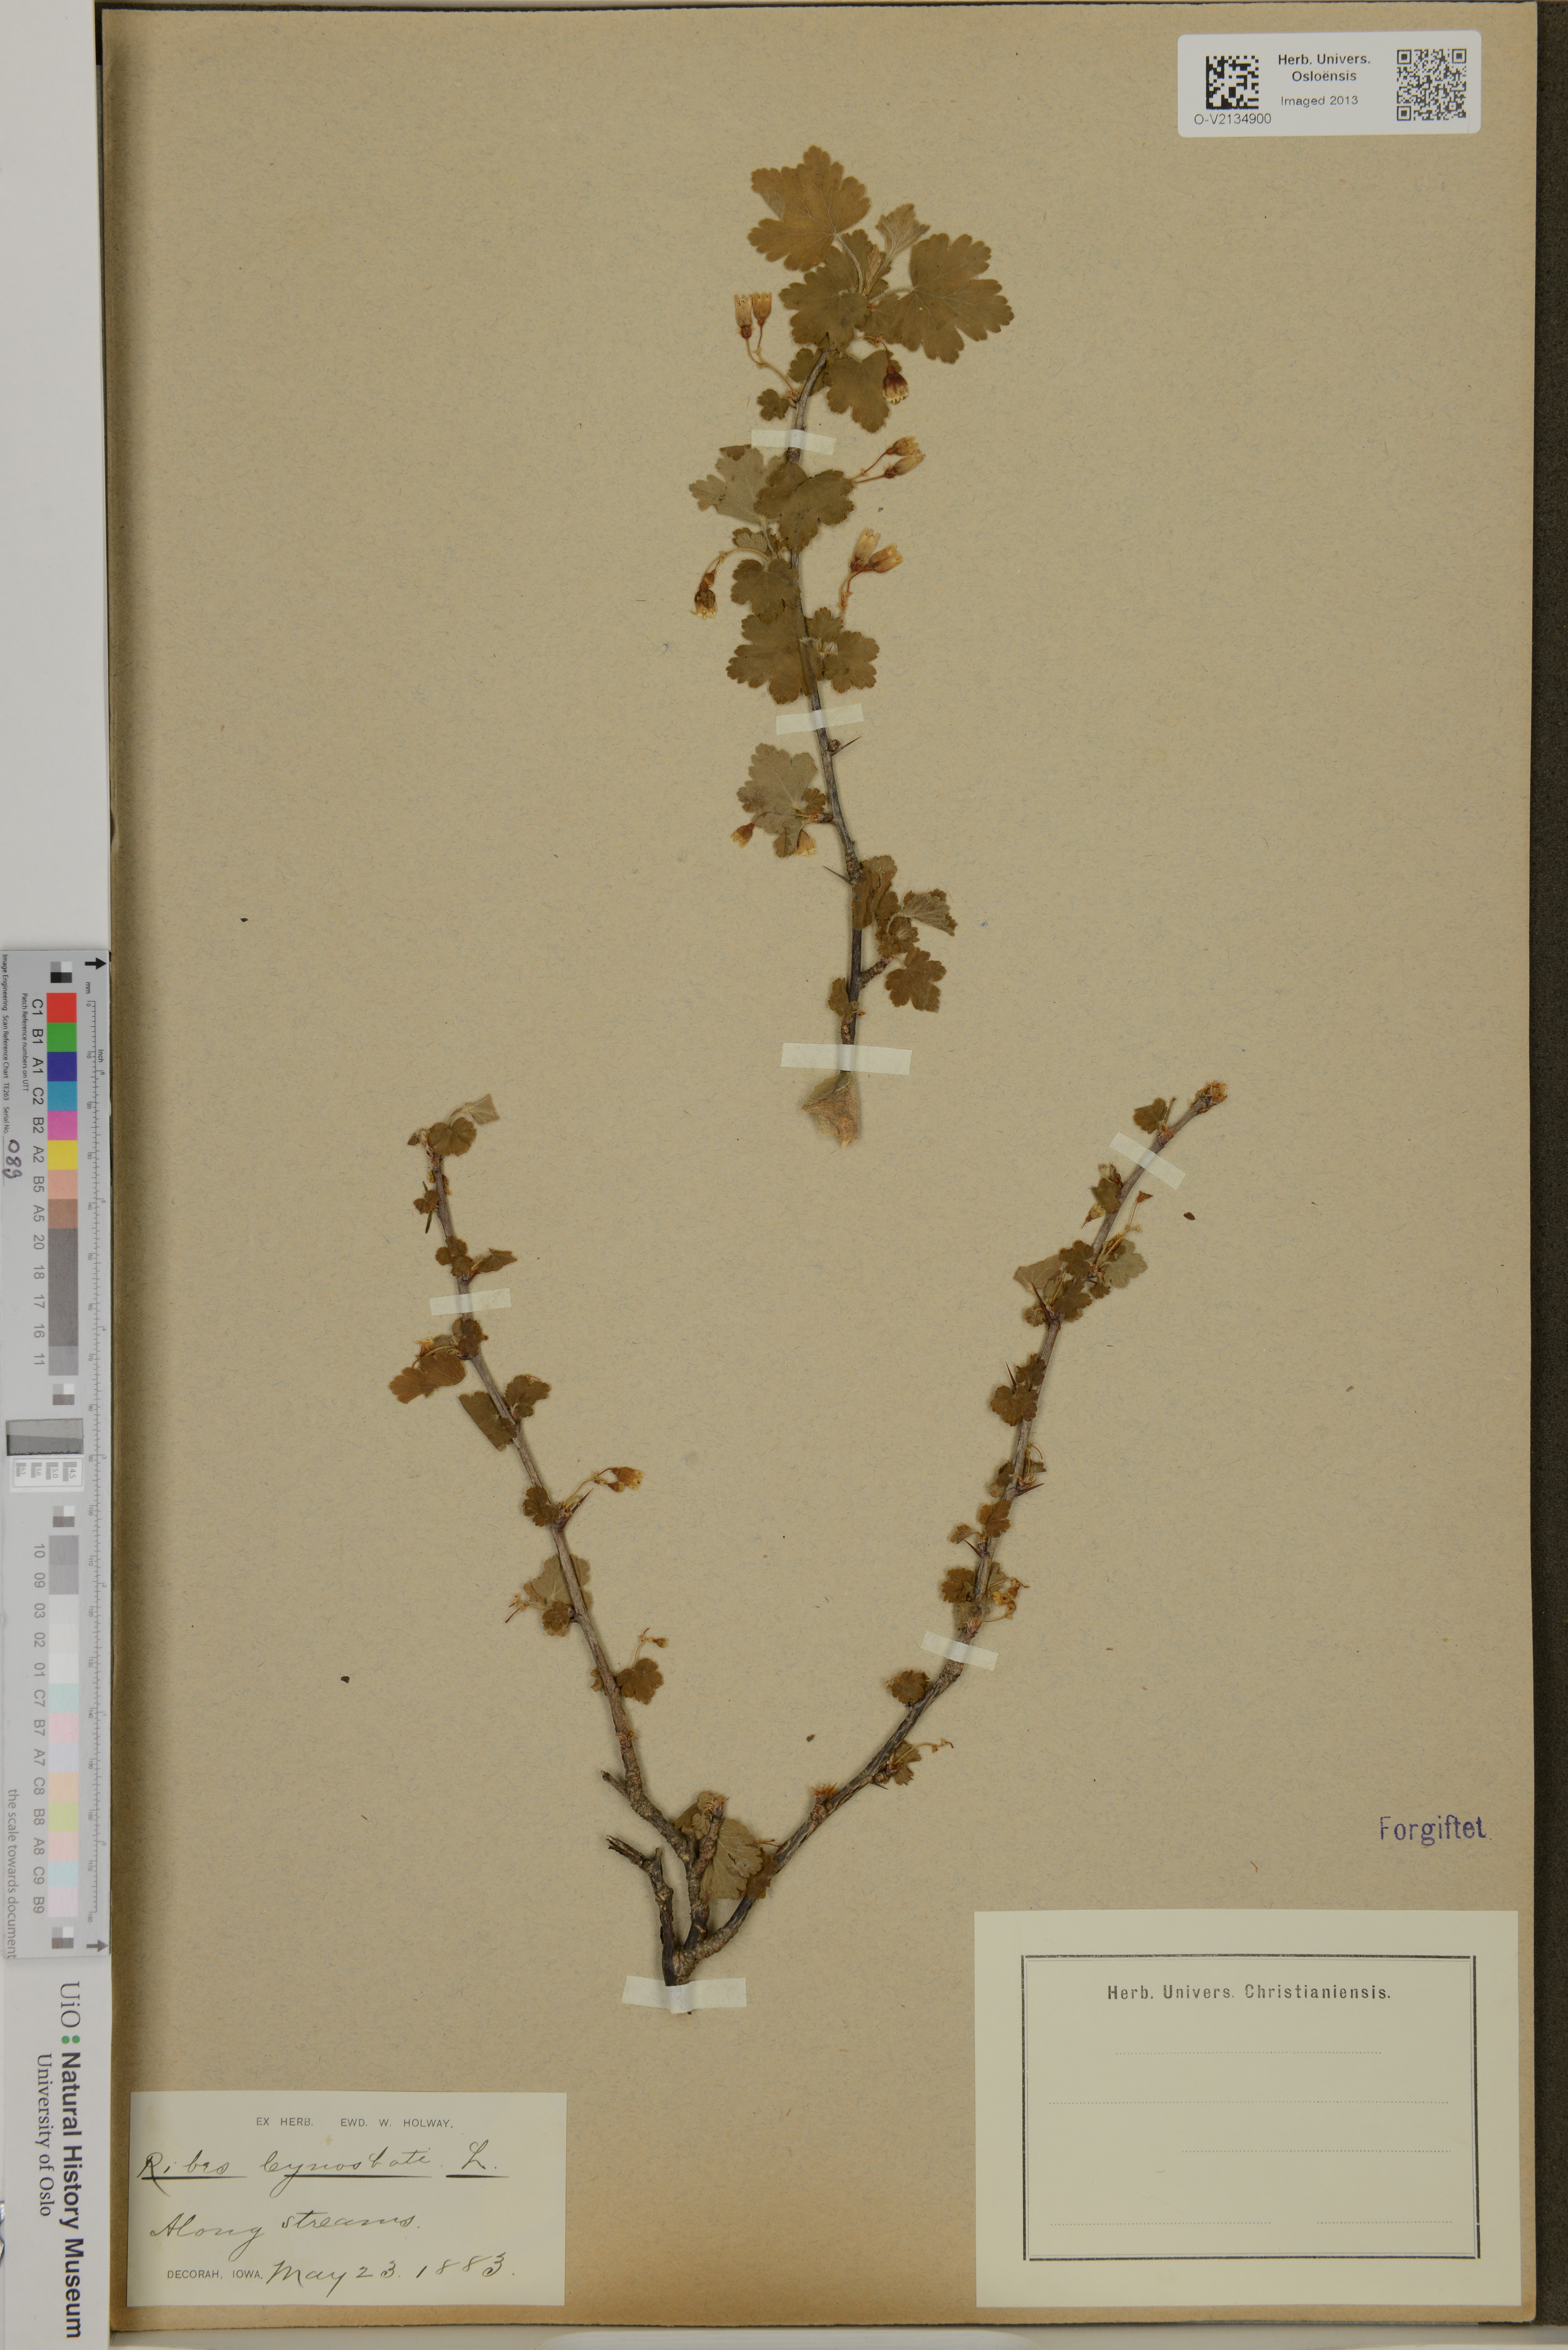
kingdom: Plantae
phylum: Tracheophyta
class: Magnoliopsida
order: Saxifragales
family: Grossulariaceae
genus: Ribes
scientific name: Ribes cynosbati
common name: American gooseberry
